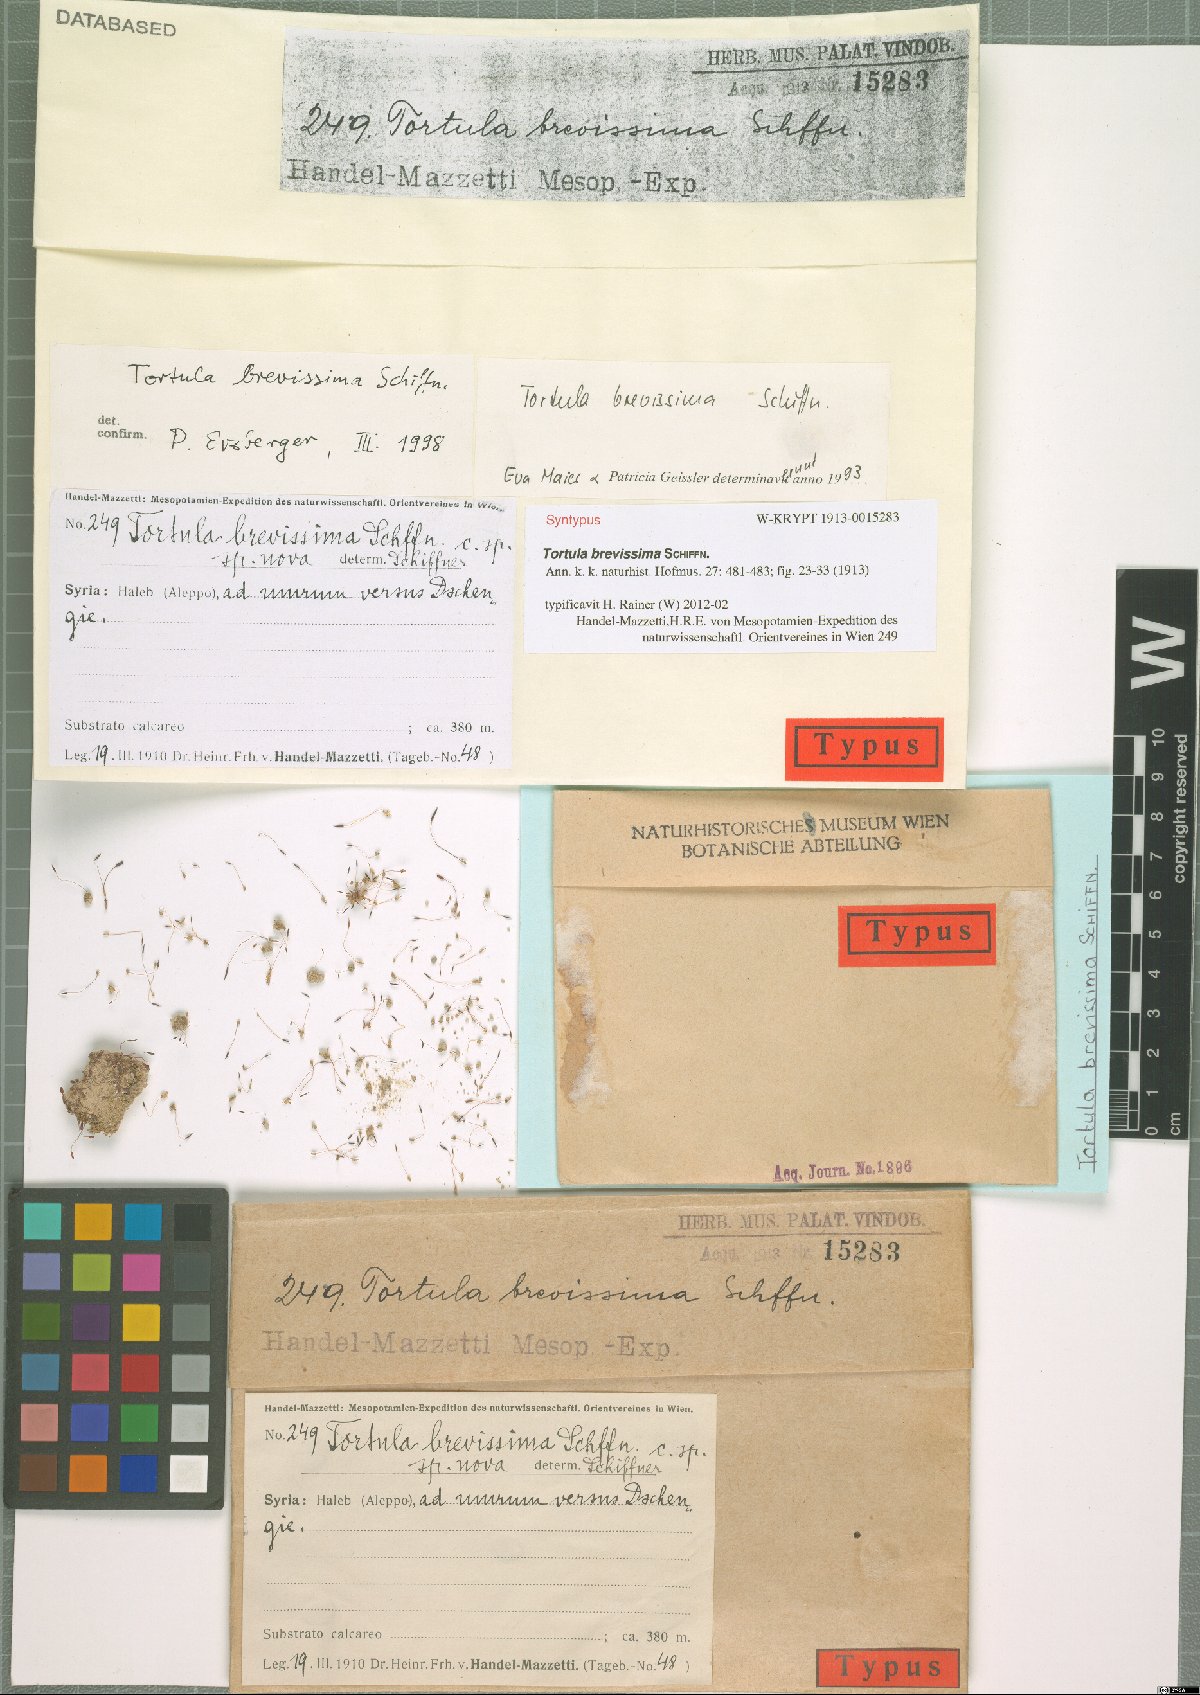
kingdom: Plantae
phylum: Bryophyta
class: Bryopsida
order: Pottiales
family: Pottiaceae
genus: Tortula
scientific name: Tortula brevissima
